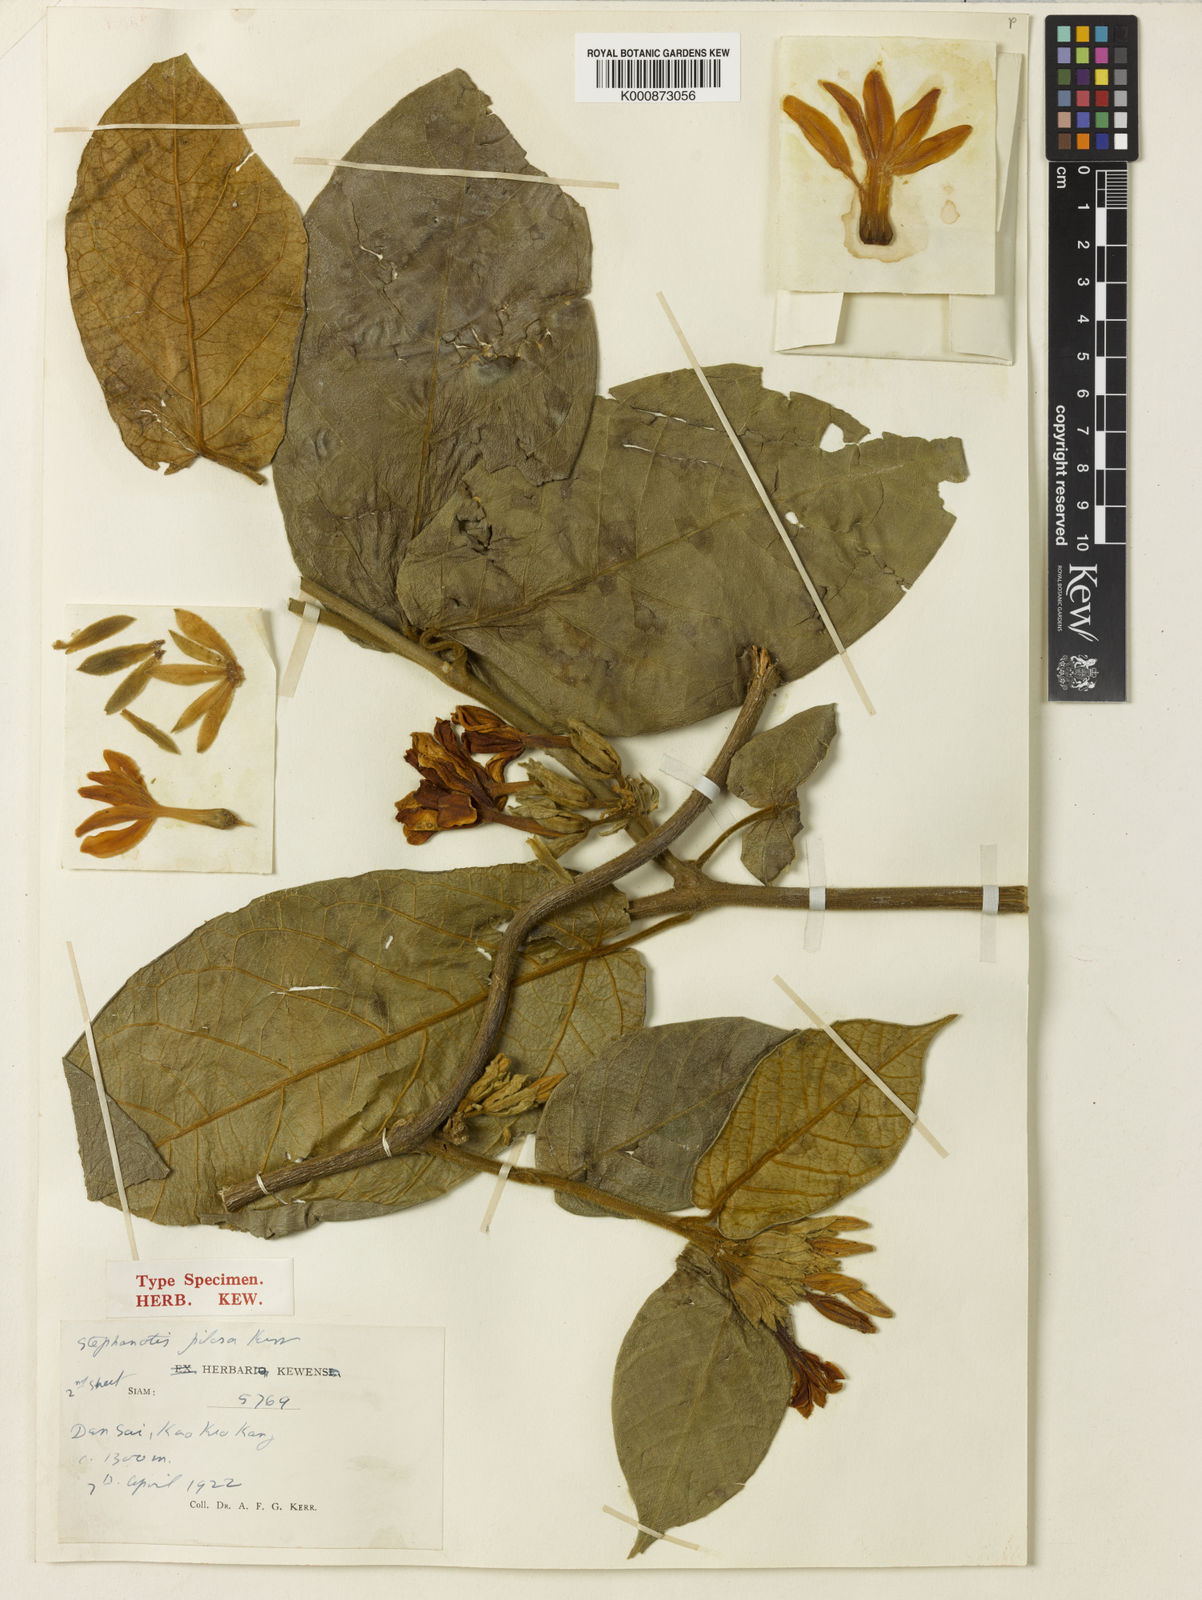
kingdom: Plantae
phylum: Tracheophyta
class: Magnoliopsida
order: Gentianales
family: Apocynaceae
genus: Jasminanthes
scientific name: Jasminanthes pilosa
